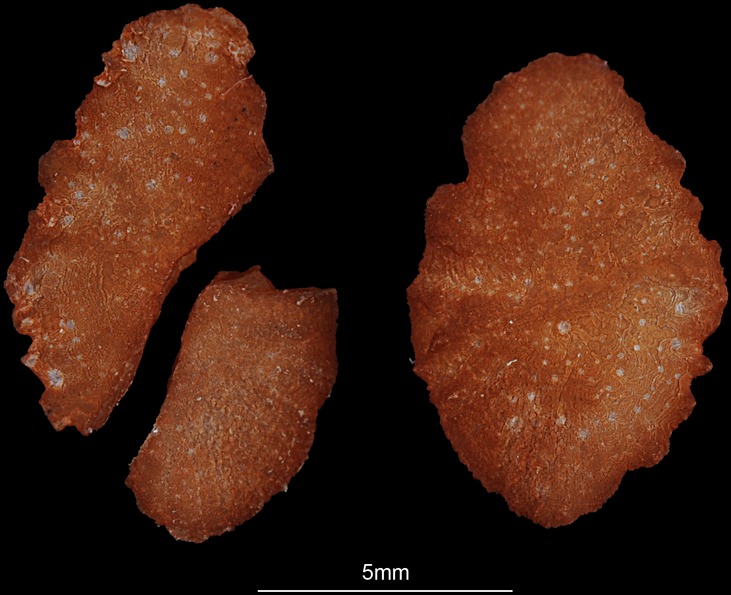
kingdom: Animalia
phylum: Chordata
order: Perciformes
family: Cichlidae
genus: Sarotherodon
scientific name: Sarotherodon galilaeus
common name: Mango tilapia
